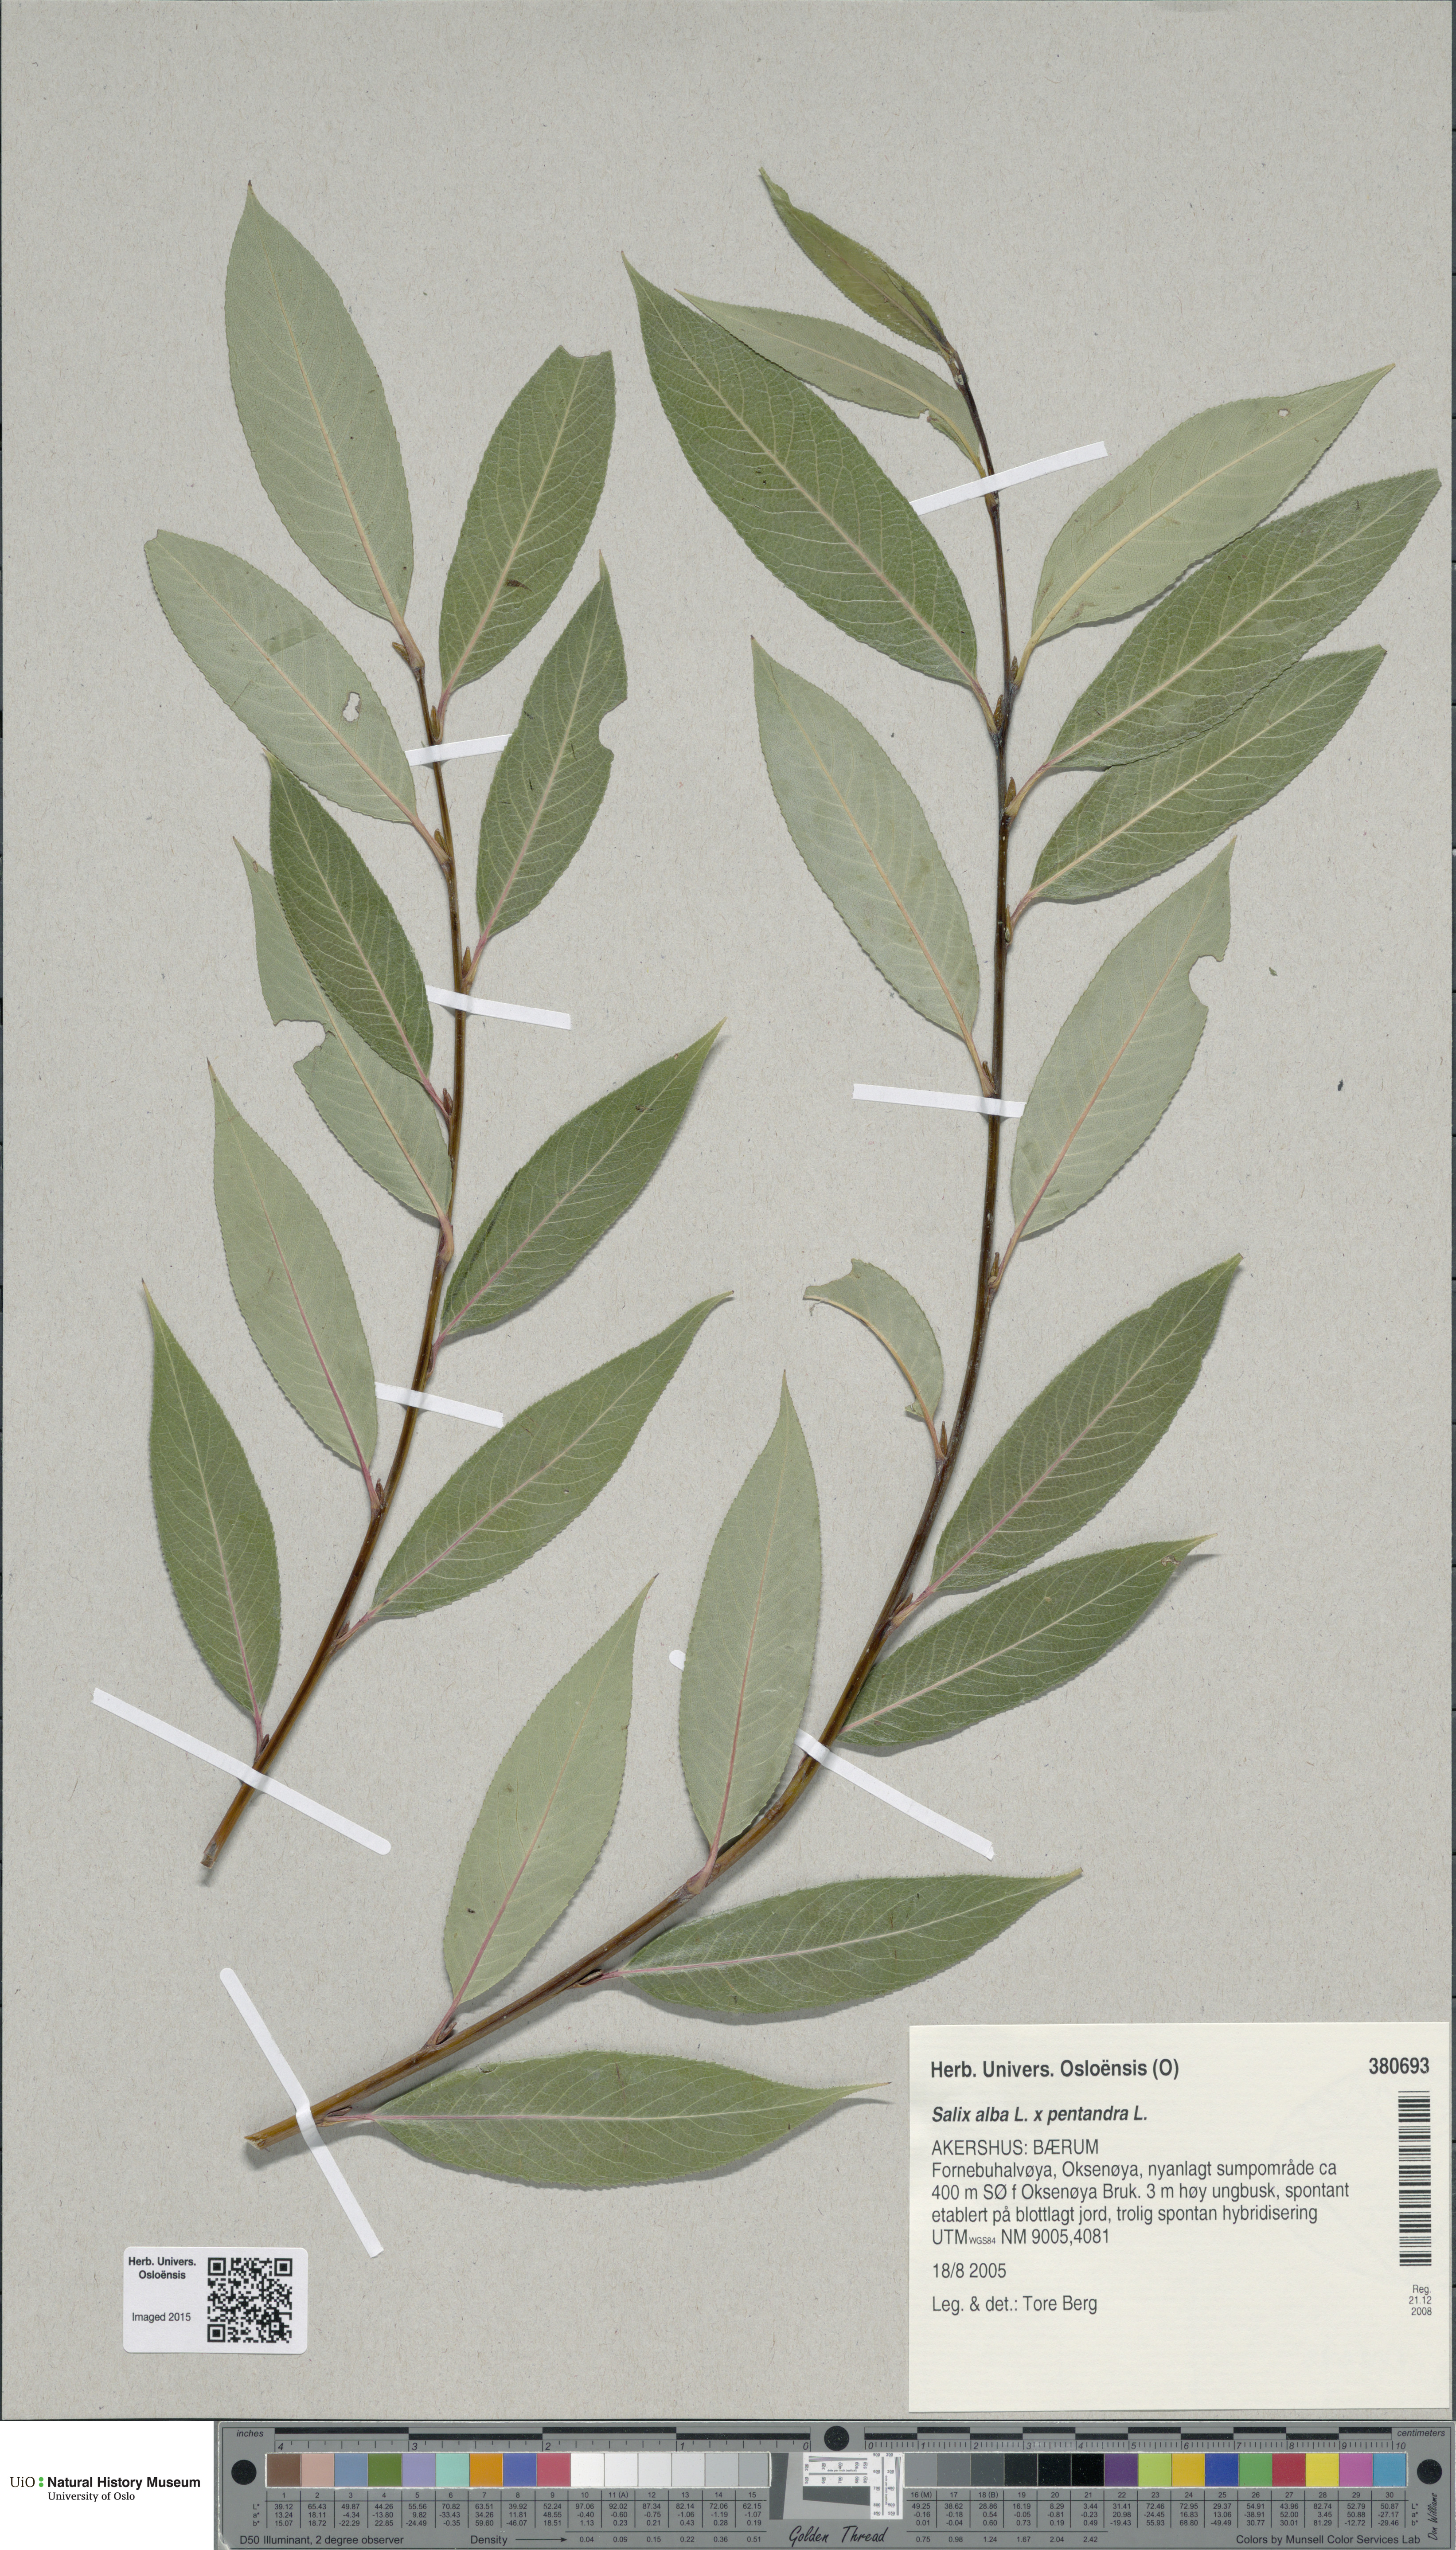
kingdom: Plantae
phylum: Tracheophyta
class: Magnoliopsida
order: Malpighiales
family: Salicaceae
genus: Salix
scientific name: Salix
